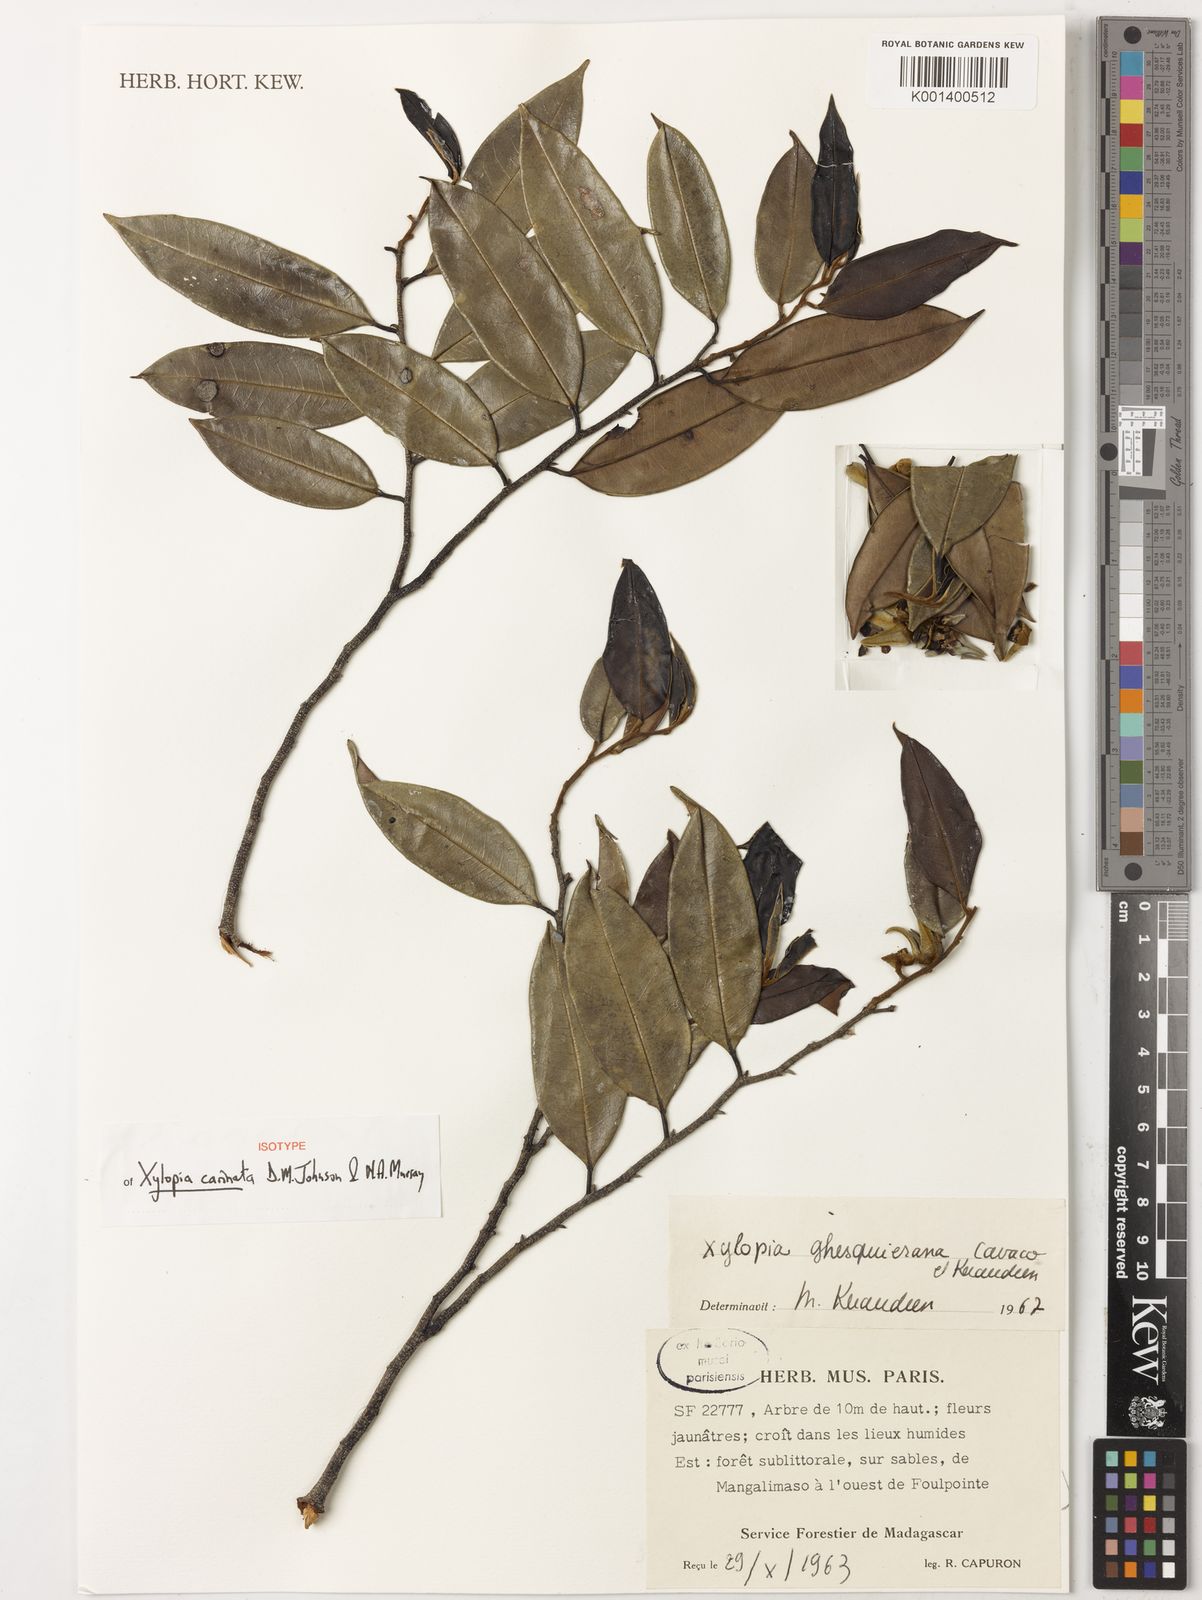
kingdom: Plantae
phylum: Tracheophyta
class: Magnoliopsida
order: Magnoliales
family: Annonaceae
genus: Xylopia
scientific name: Xylopia
